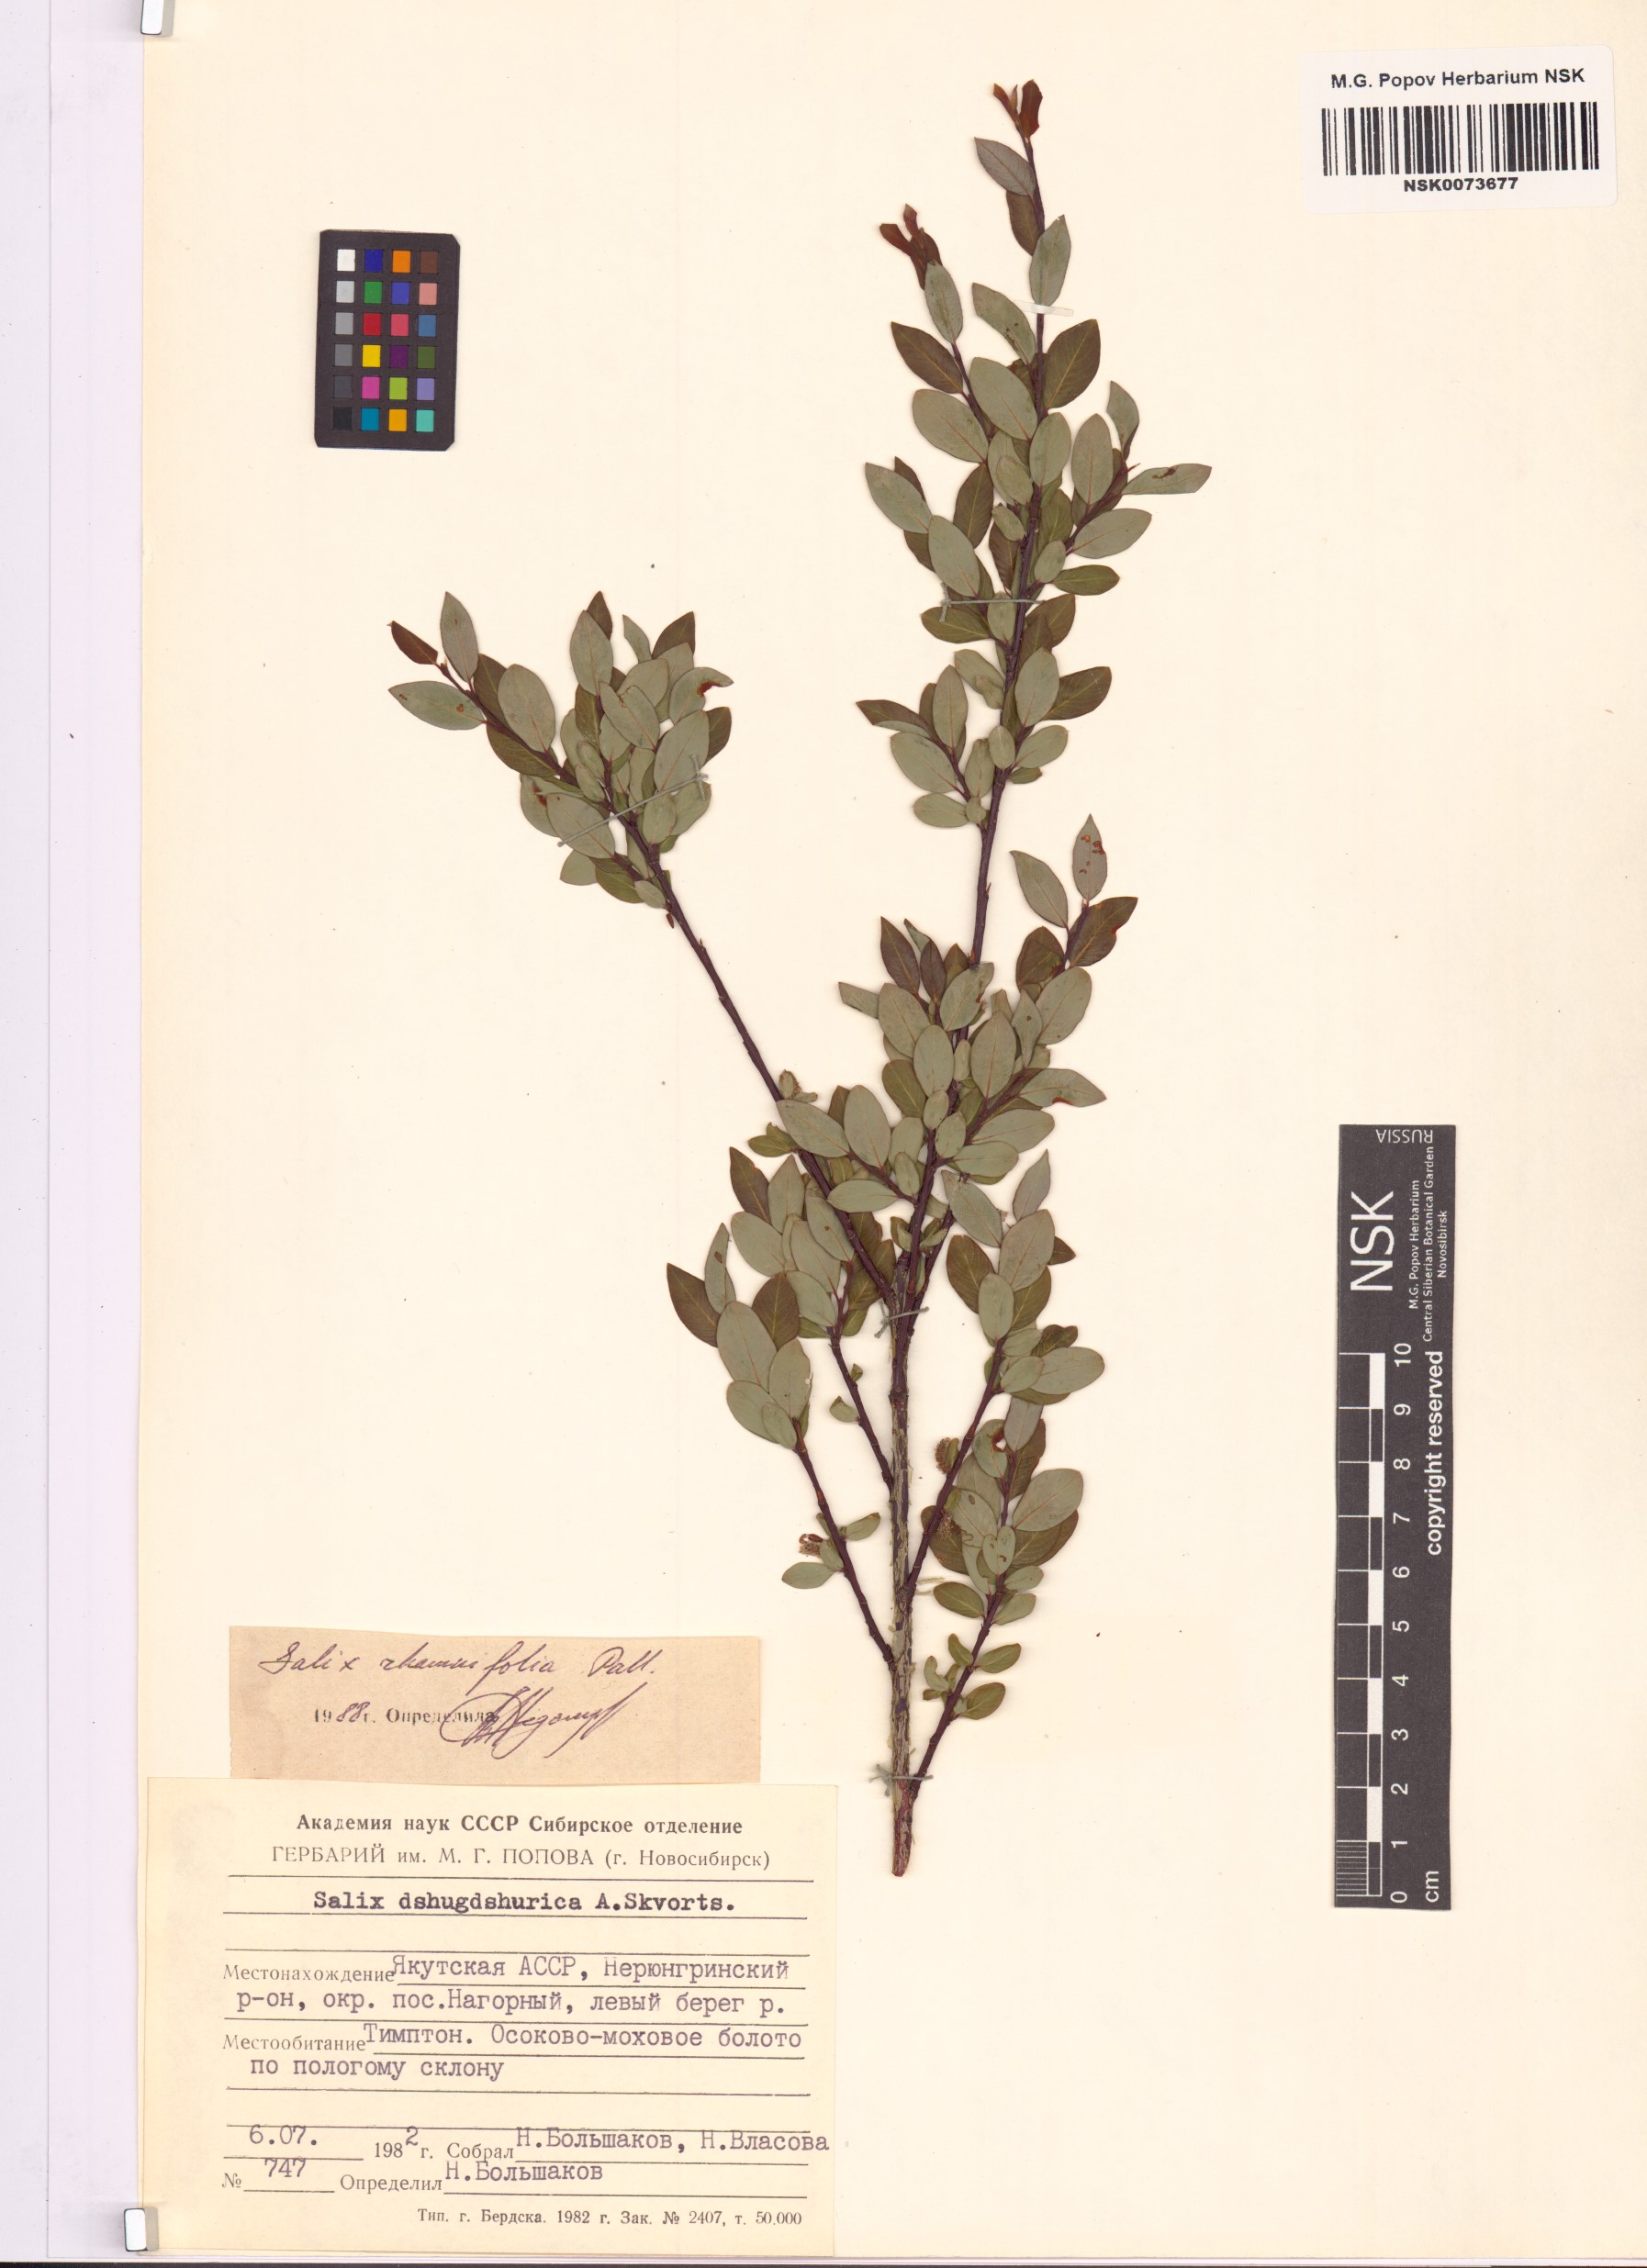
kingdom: Plantae
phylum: Tracheophyta
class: Magnoliopsida
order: Malpighiales
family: Salicaceae
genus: Salix
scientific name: Salix rhamnifolia
